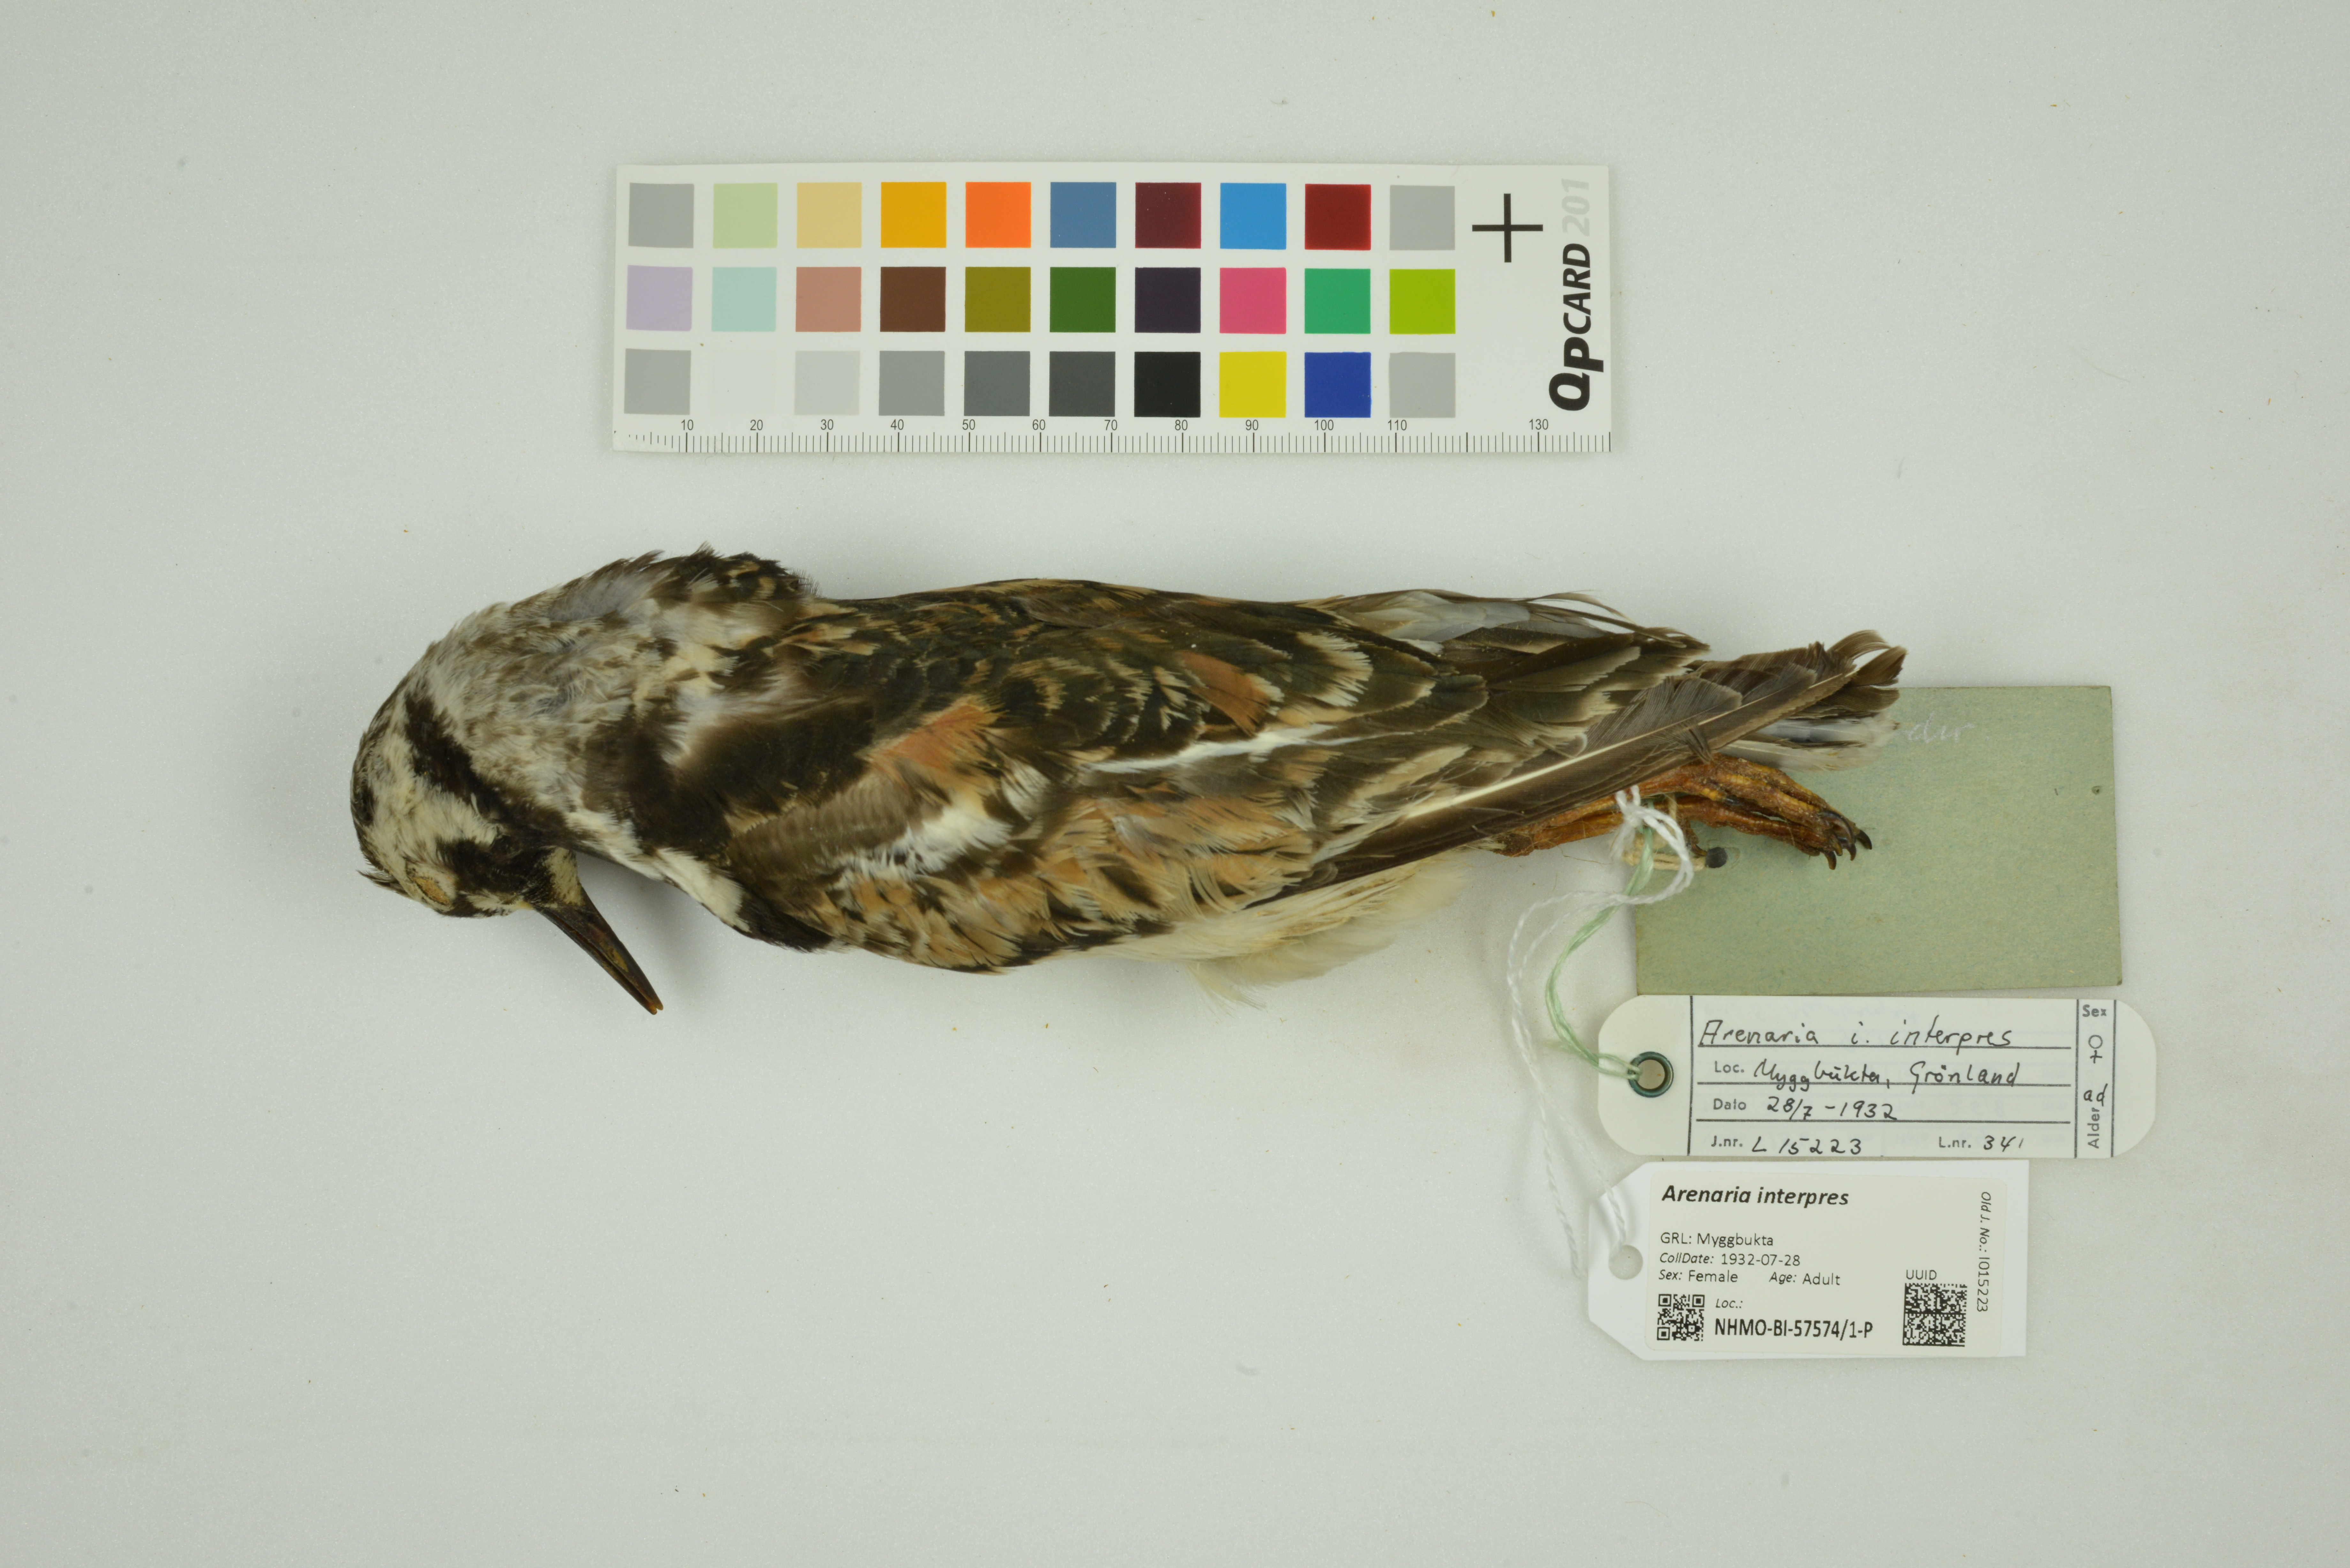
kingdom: Animalia
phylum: Chordata
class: Aves
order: Charadriiformes
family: Scolopacidae
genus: Arenaria
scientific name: Arenaria interpres
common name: Ruddy turnstone
